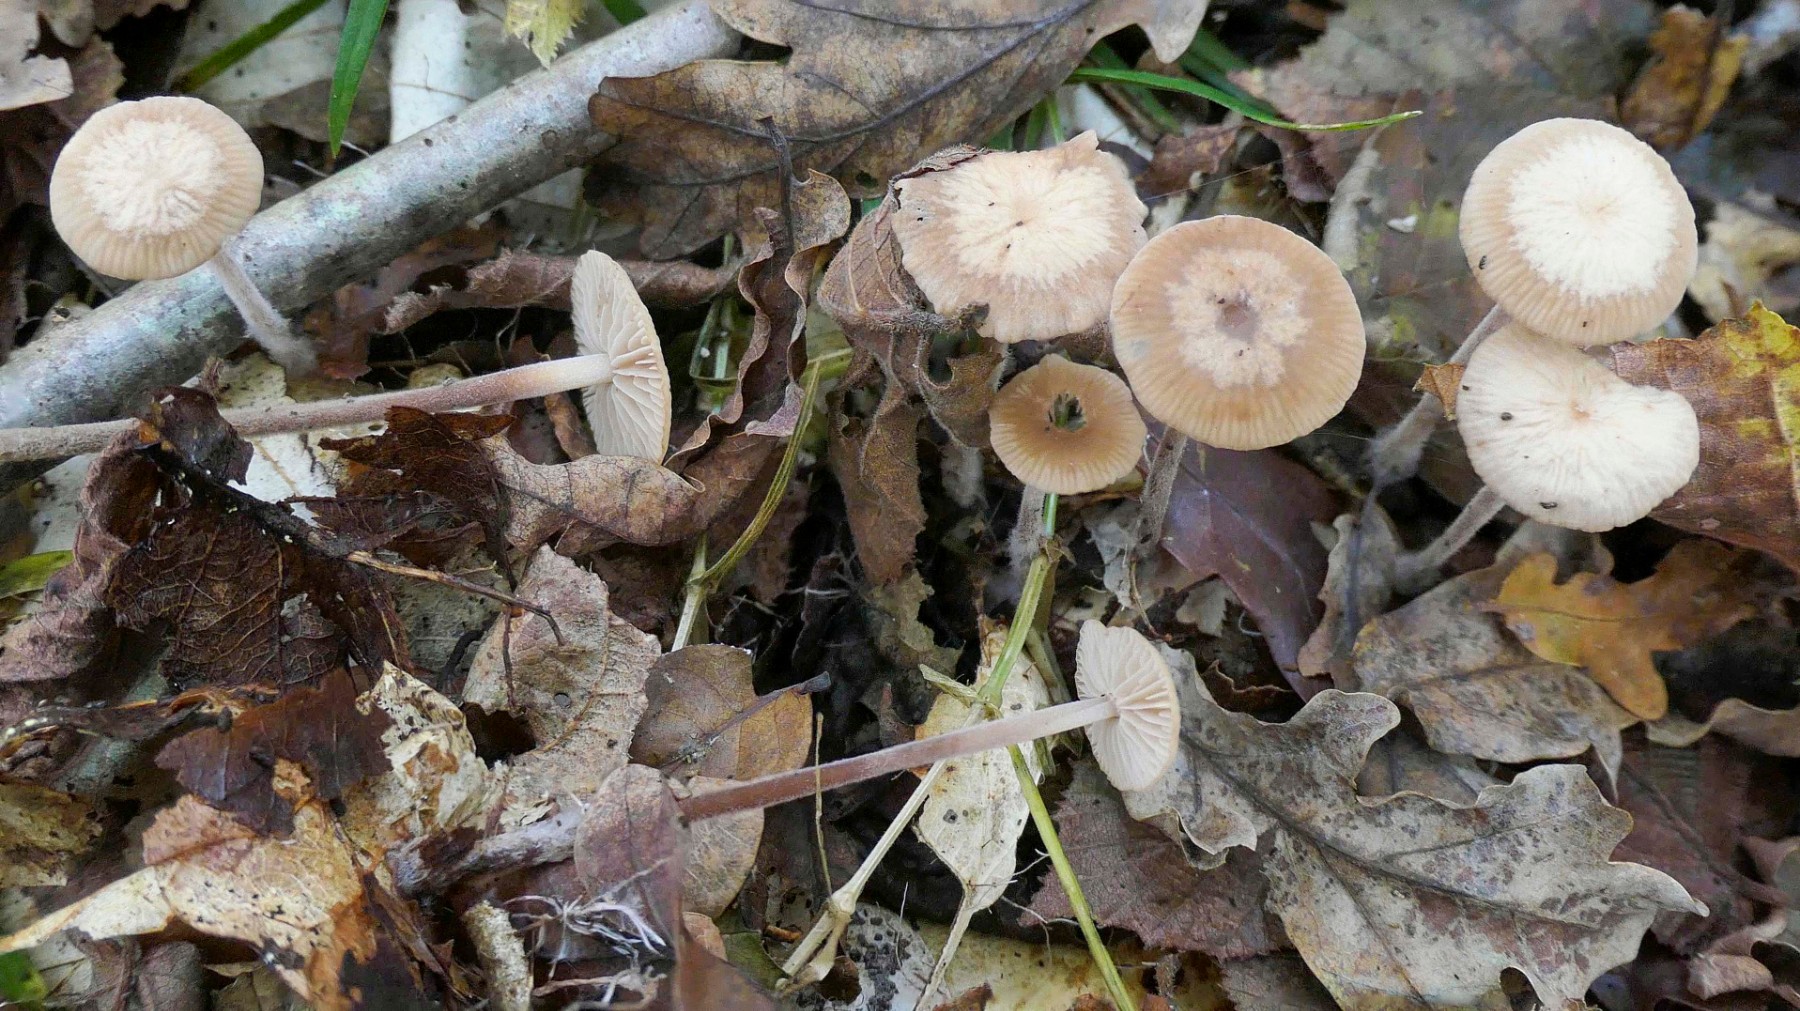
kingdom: Fungi
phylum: Basidiomycota
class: Agaricomycetes
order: Agaricales
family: Omphalotaceae
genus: Mycetinis
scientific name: Mycetinis querceus
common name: ege-løghat
